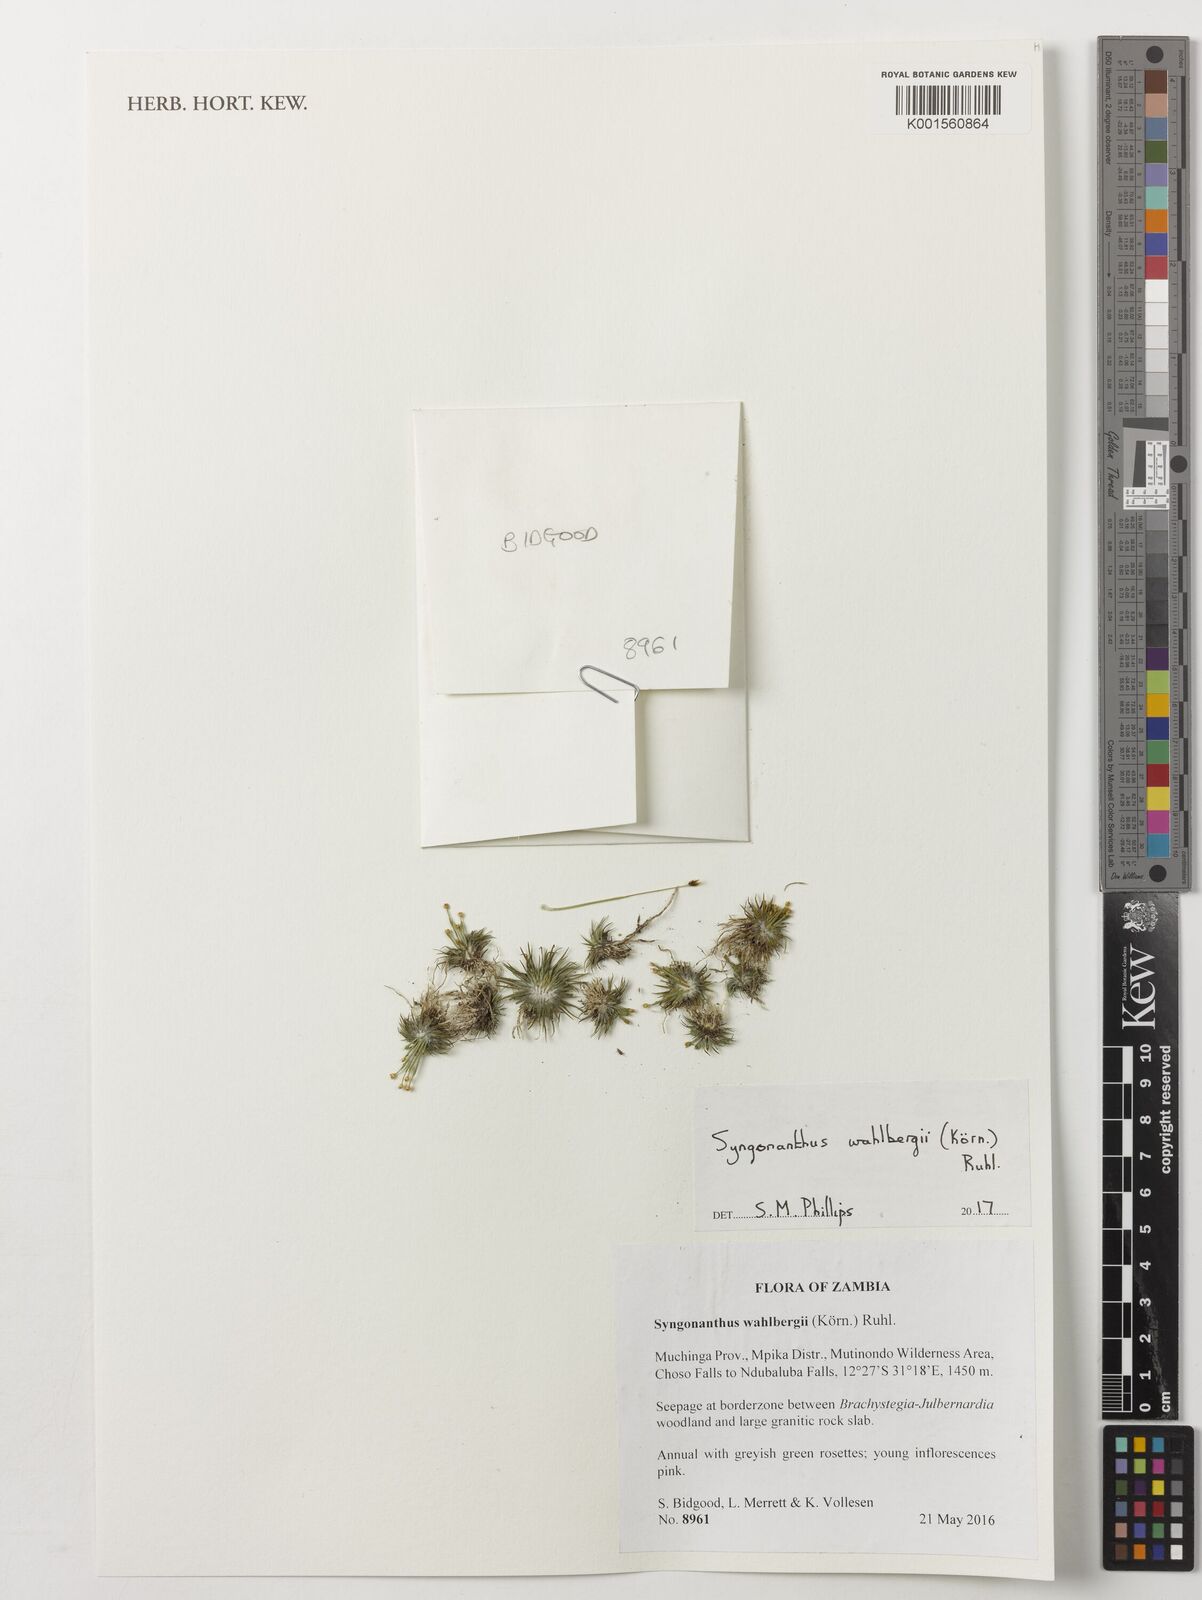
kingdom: Plantae
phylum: Tracheophyta
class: Liliopsida
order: Poales
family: Eriocaulaceae
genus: Syngonanthus
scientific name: Syngonanthus wahlbergii
